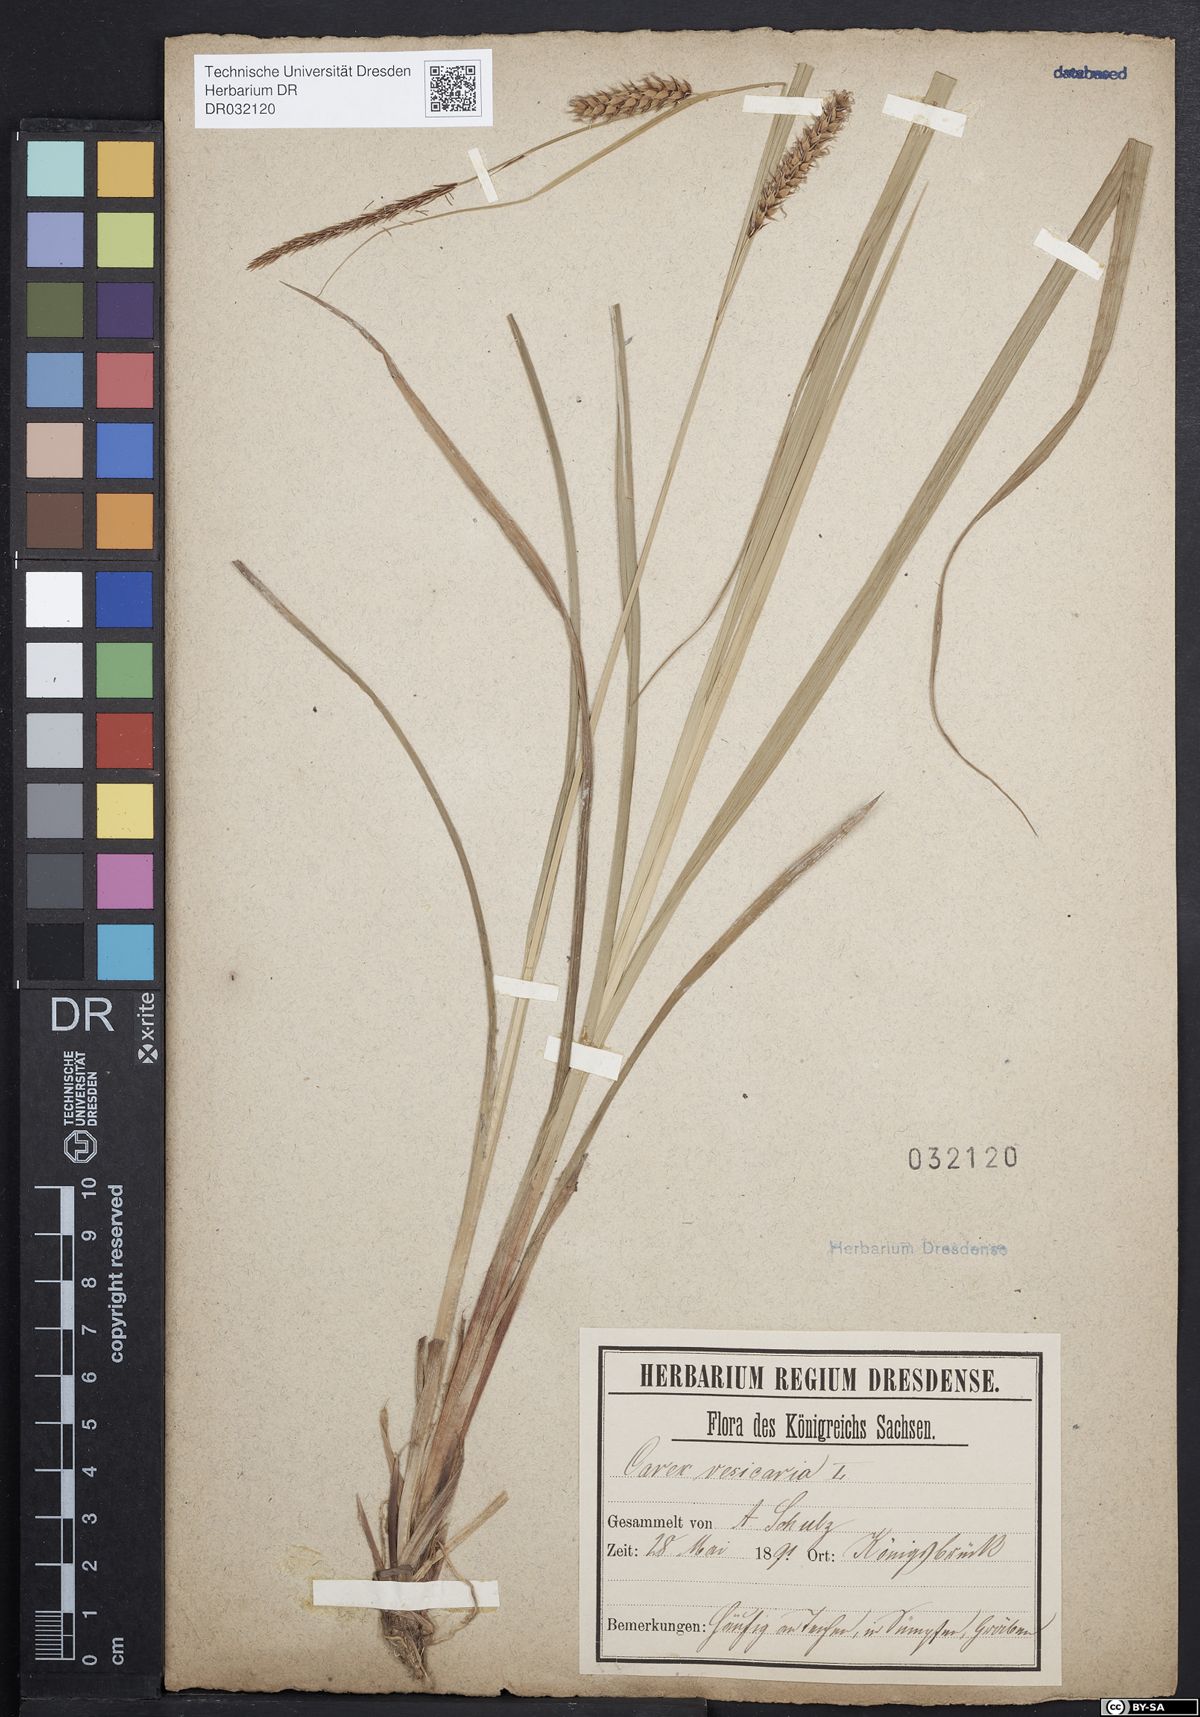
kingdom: Plantae
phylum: Tracheophyta
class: Liliopsida
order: Poales
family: Cyperaceae
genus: Carex
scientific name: Carex vesicaria
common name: Bladder-sedge
